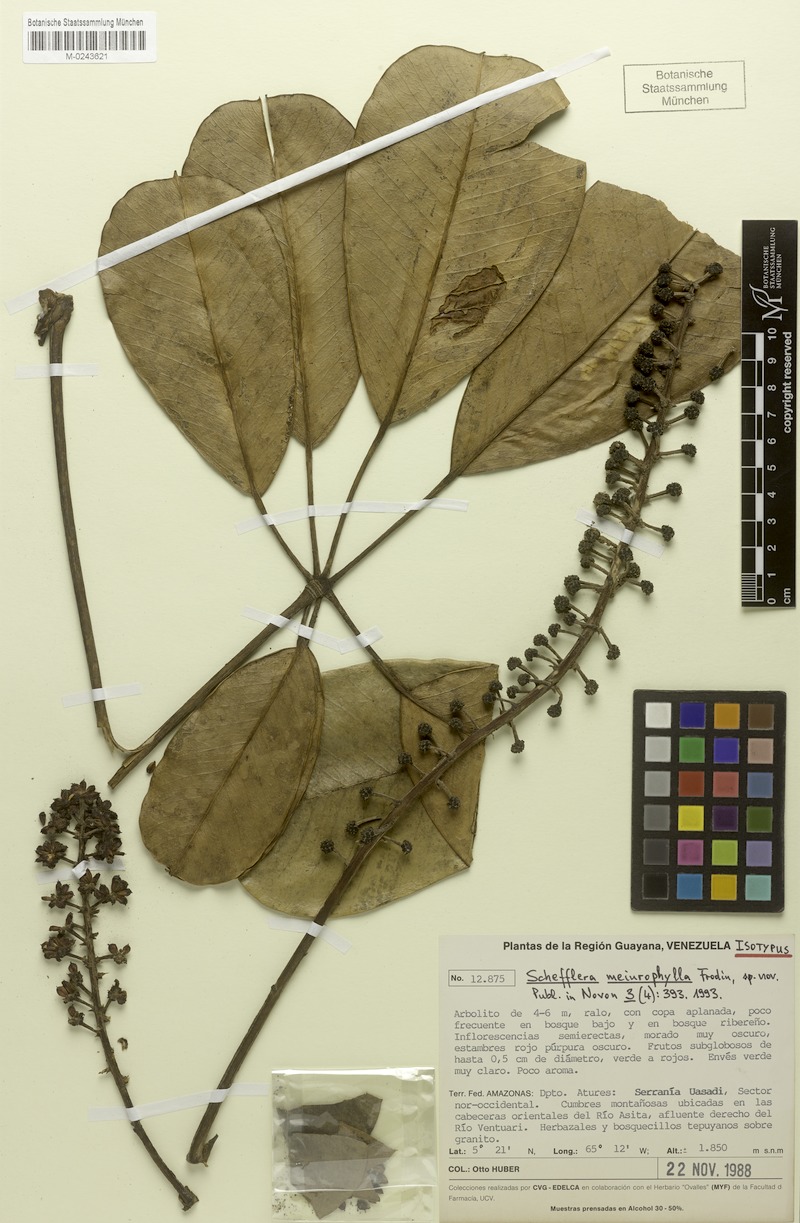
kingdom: Plantae
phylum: Tracheophyta
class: Magnoliopsida
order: Apiales
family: Araliaceae
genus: Sciodaphyllum
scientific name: Sciodaphyllum meiurophyllum
